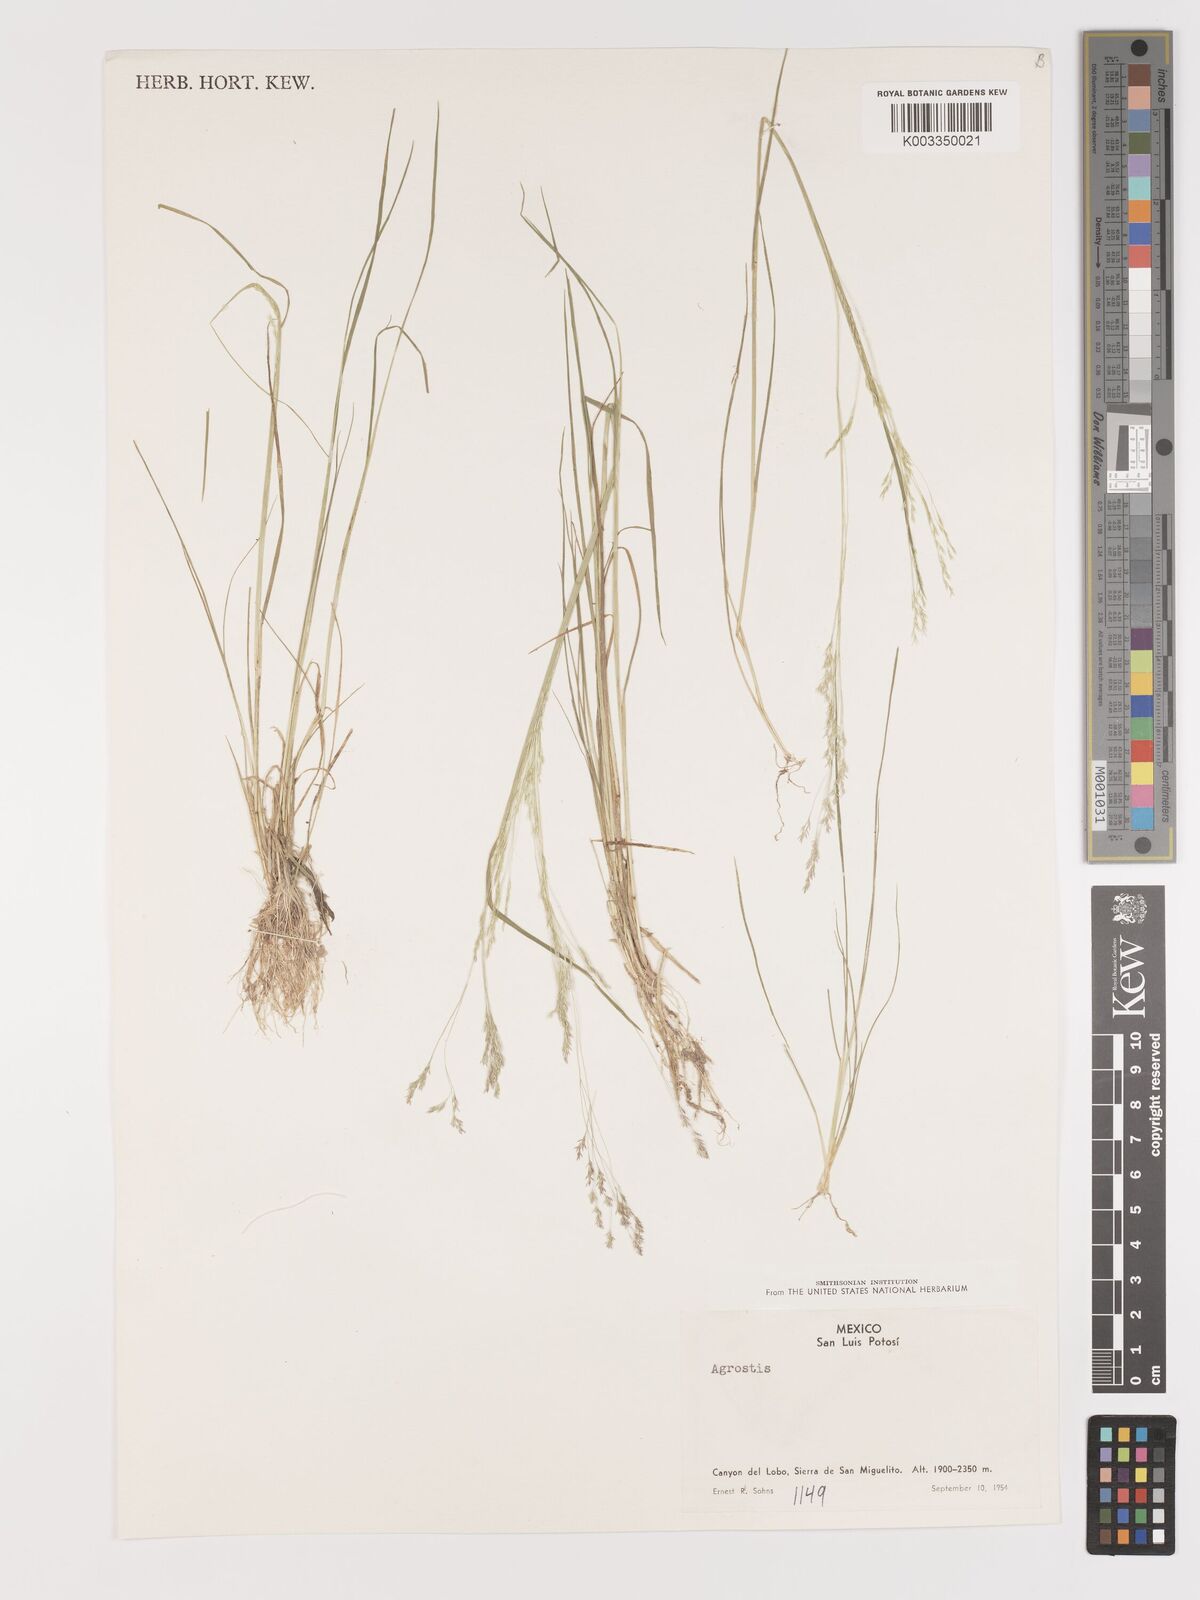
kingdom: Plantae
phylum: Tracheophyta
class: Liliopsida
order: Poales
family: Poaceae
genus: Agrostis
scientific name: Agrostis
